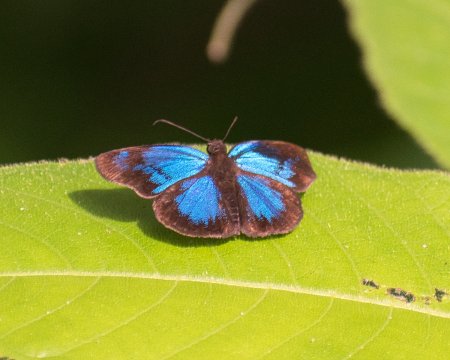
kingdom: Animalia
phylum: Arthropoda
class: Insecta
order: Lepidoptera
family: Hesperiidae
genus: Paches
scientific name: Paches loxus
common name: Glorious Blue-Skipper
